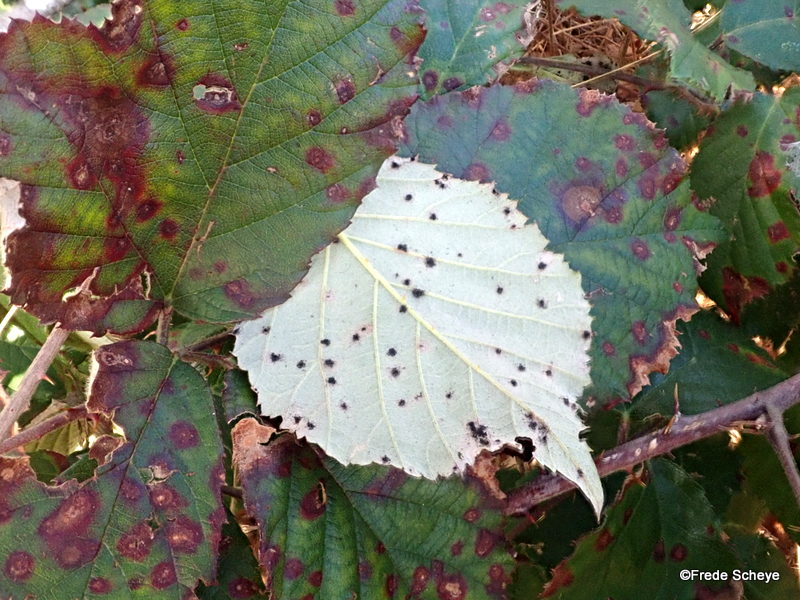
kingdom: Fungi
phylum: Basidiomycota
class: Pucciniomycetes
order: Pucciniales
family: Phragmidiaceae
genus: Phragmidium
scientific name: Phragmidium violaceum
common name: violet flercellerust
